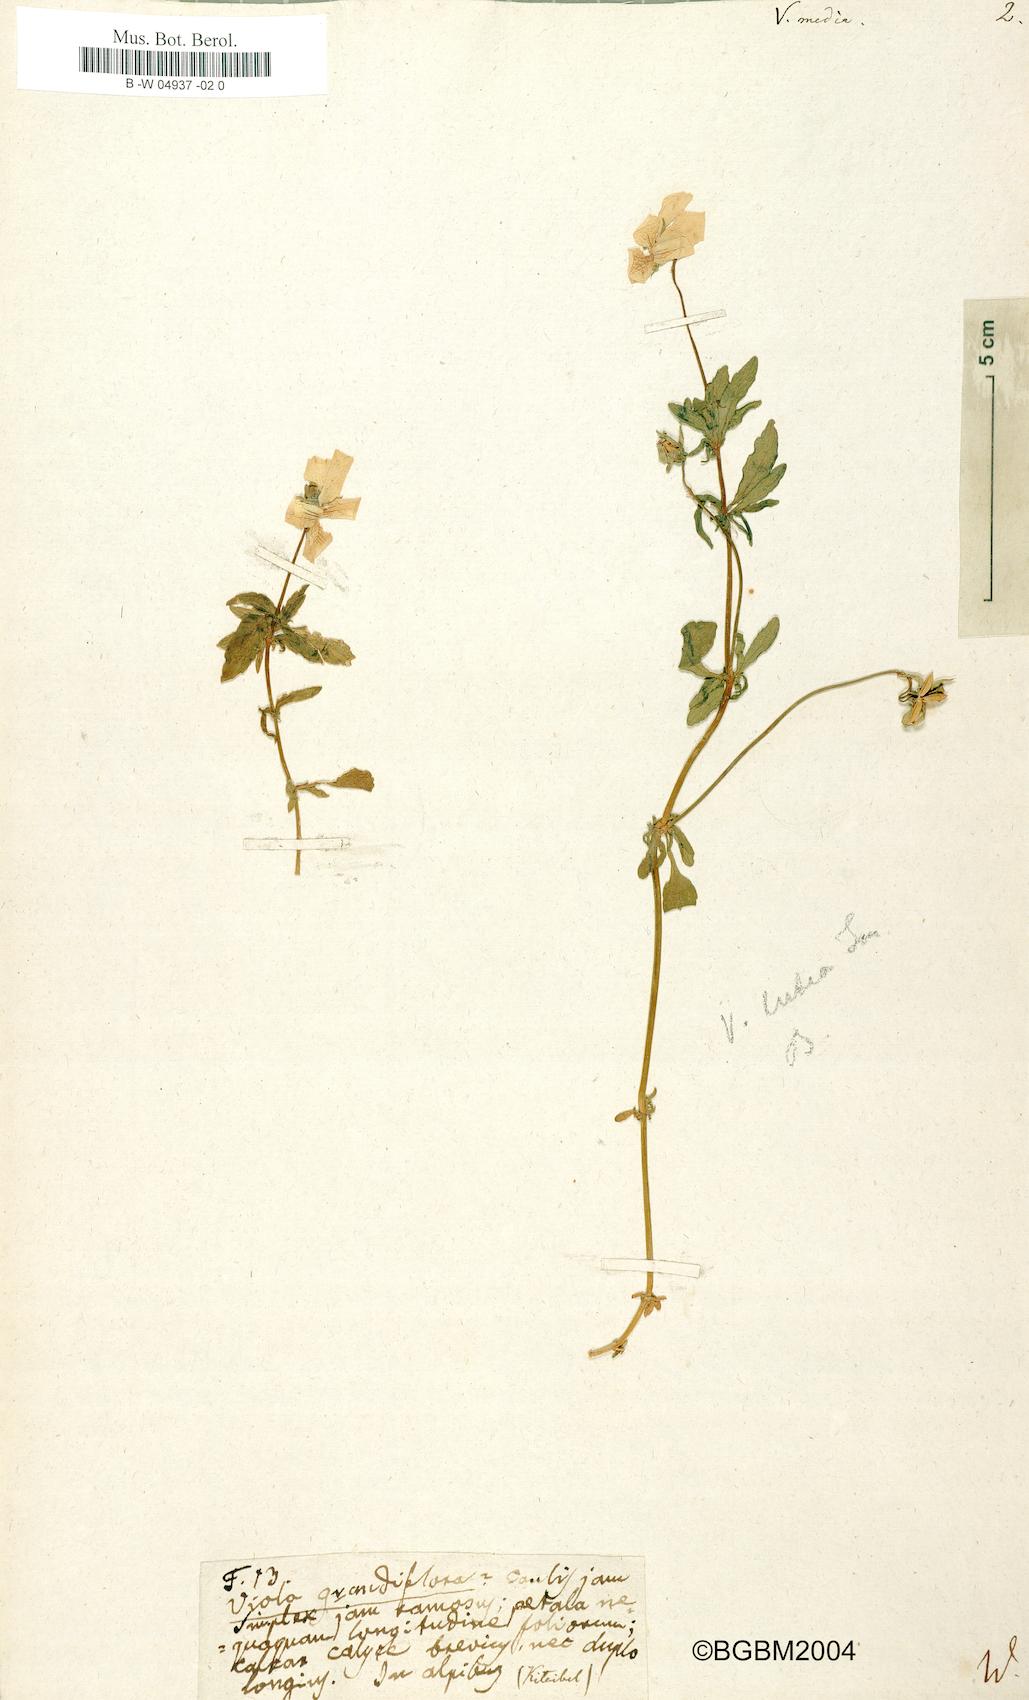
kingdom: Plantae
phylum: Tracheophyta
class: Magnoliopsida
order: Malpighiales
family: Violaceae
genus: Viola
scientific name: Viola tricolor
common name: Pansy
